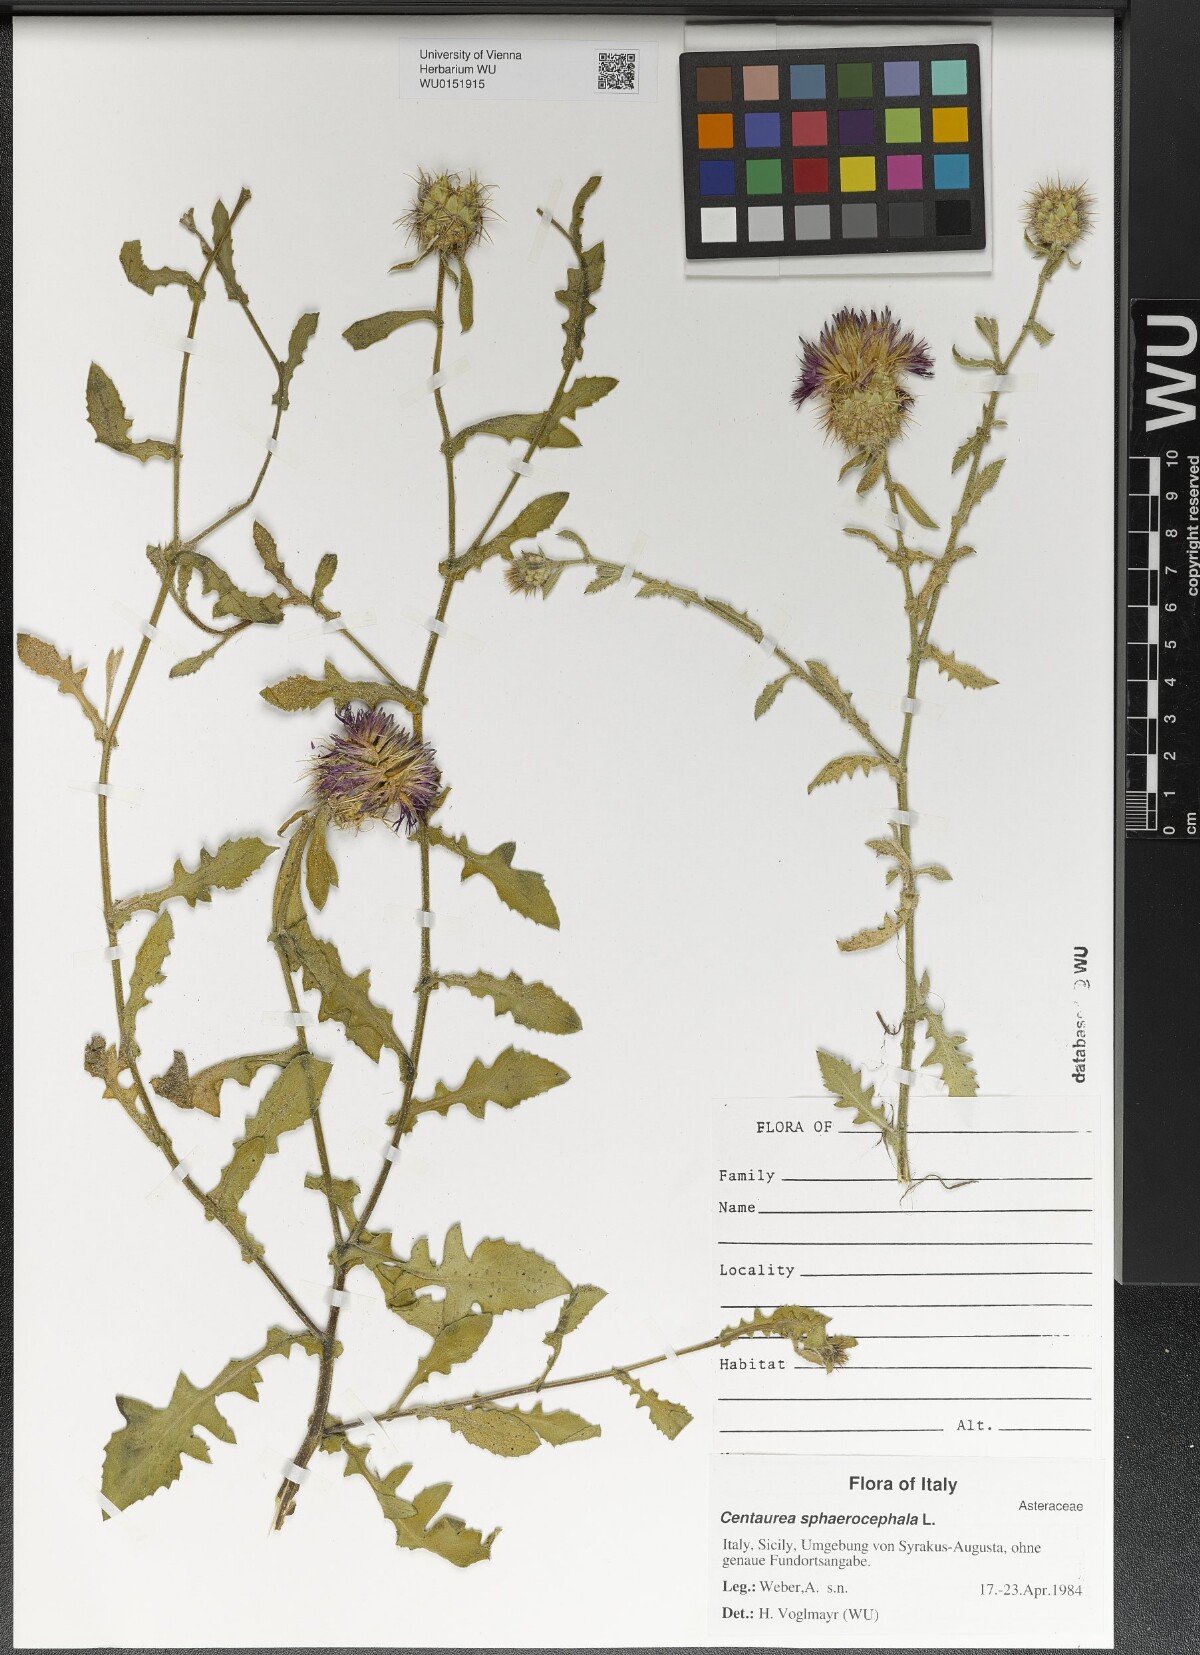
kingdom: Plantae
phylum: Tracheophyta
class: Magnoliopsida
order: Asterales
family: Asteraceae
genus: Centaurea
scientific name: Centaurea sphaerocephala
